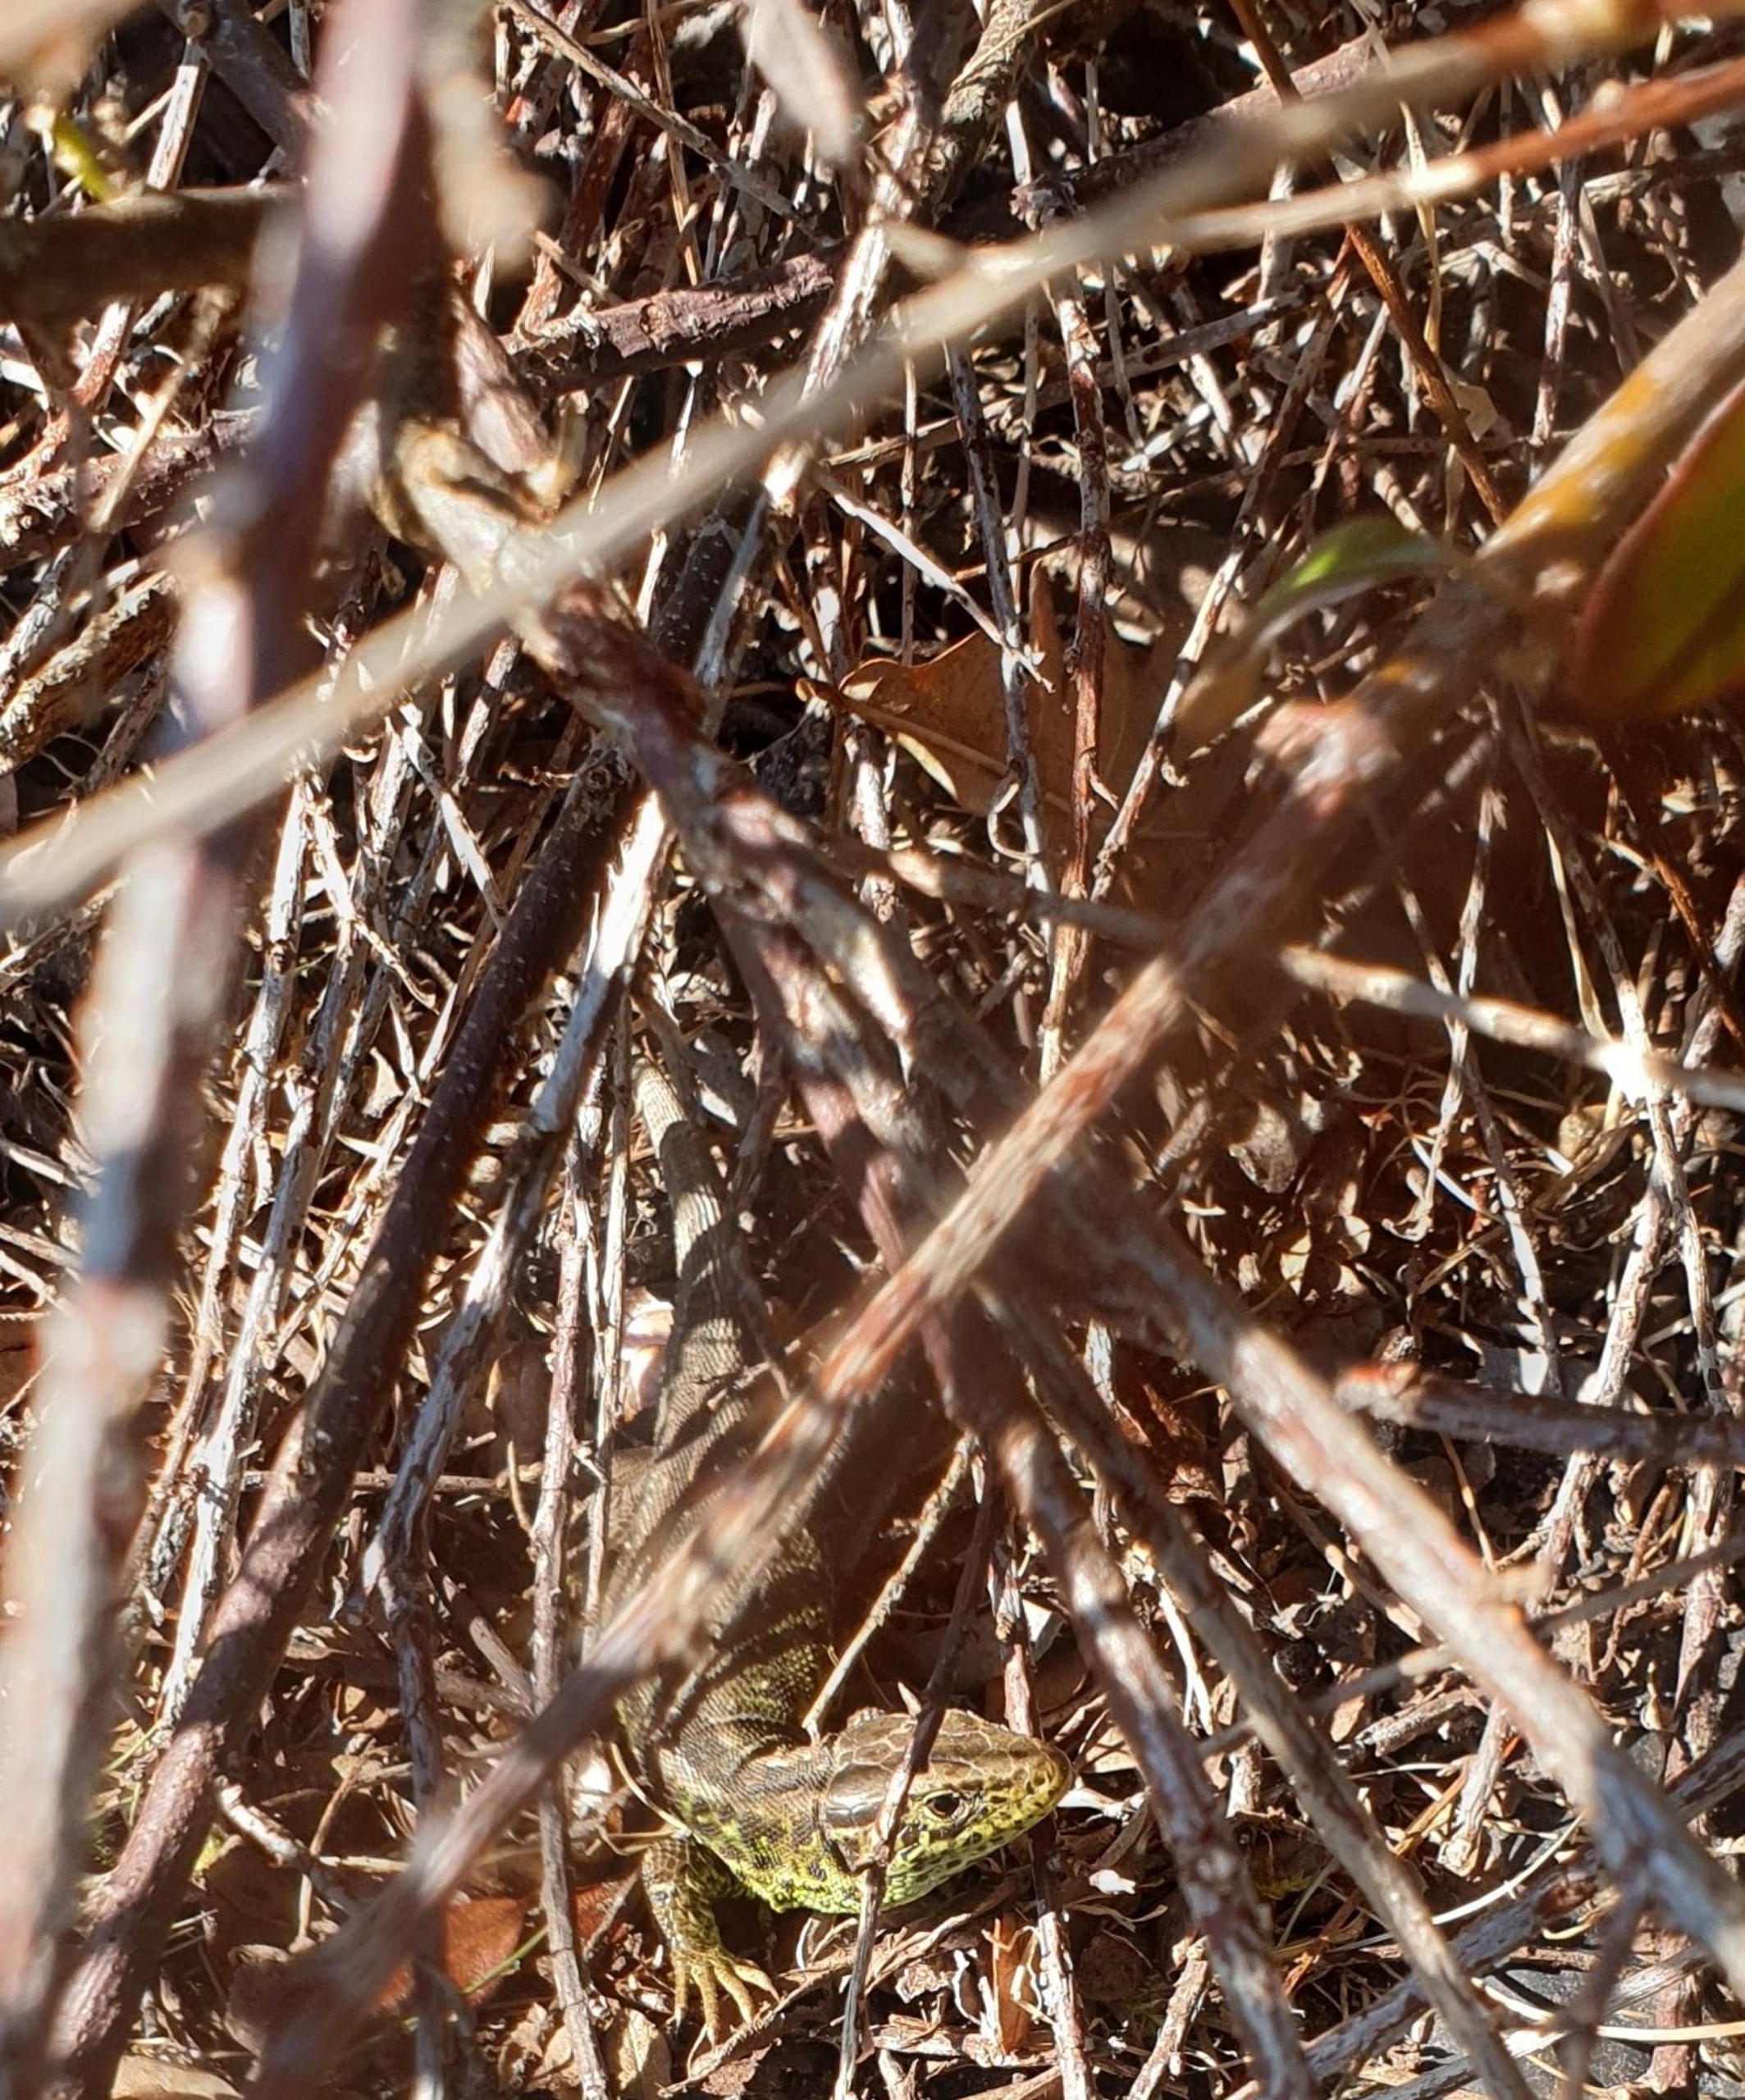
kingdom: Animalia
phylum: Chordata
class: Squamata
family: Lacertidae
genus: Lacerta
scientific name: Lacerta agilis
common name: Markfirben
